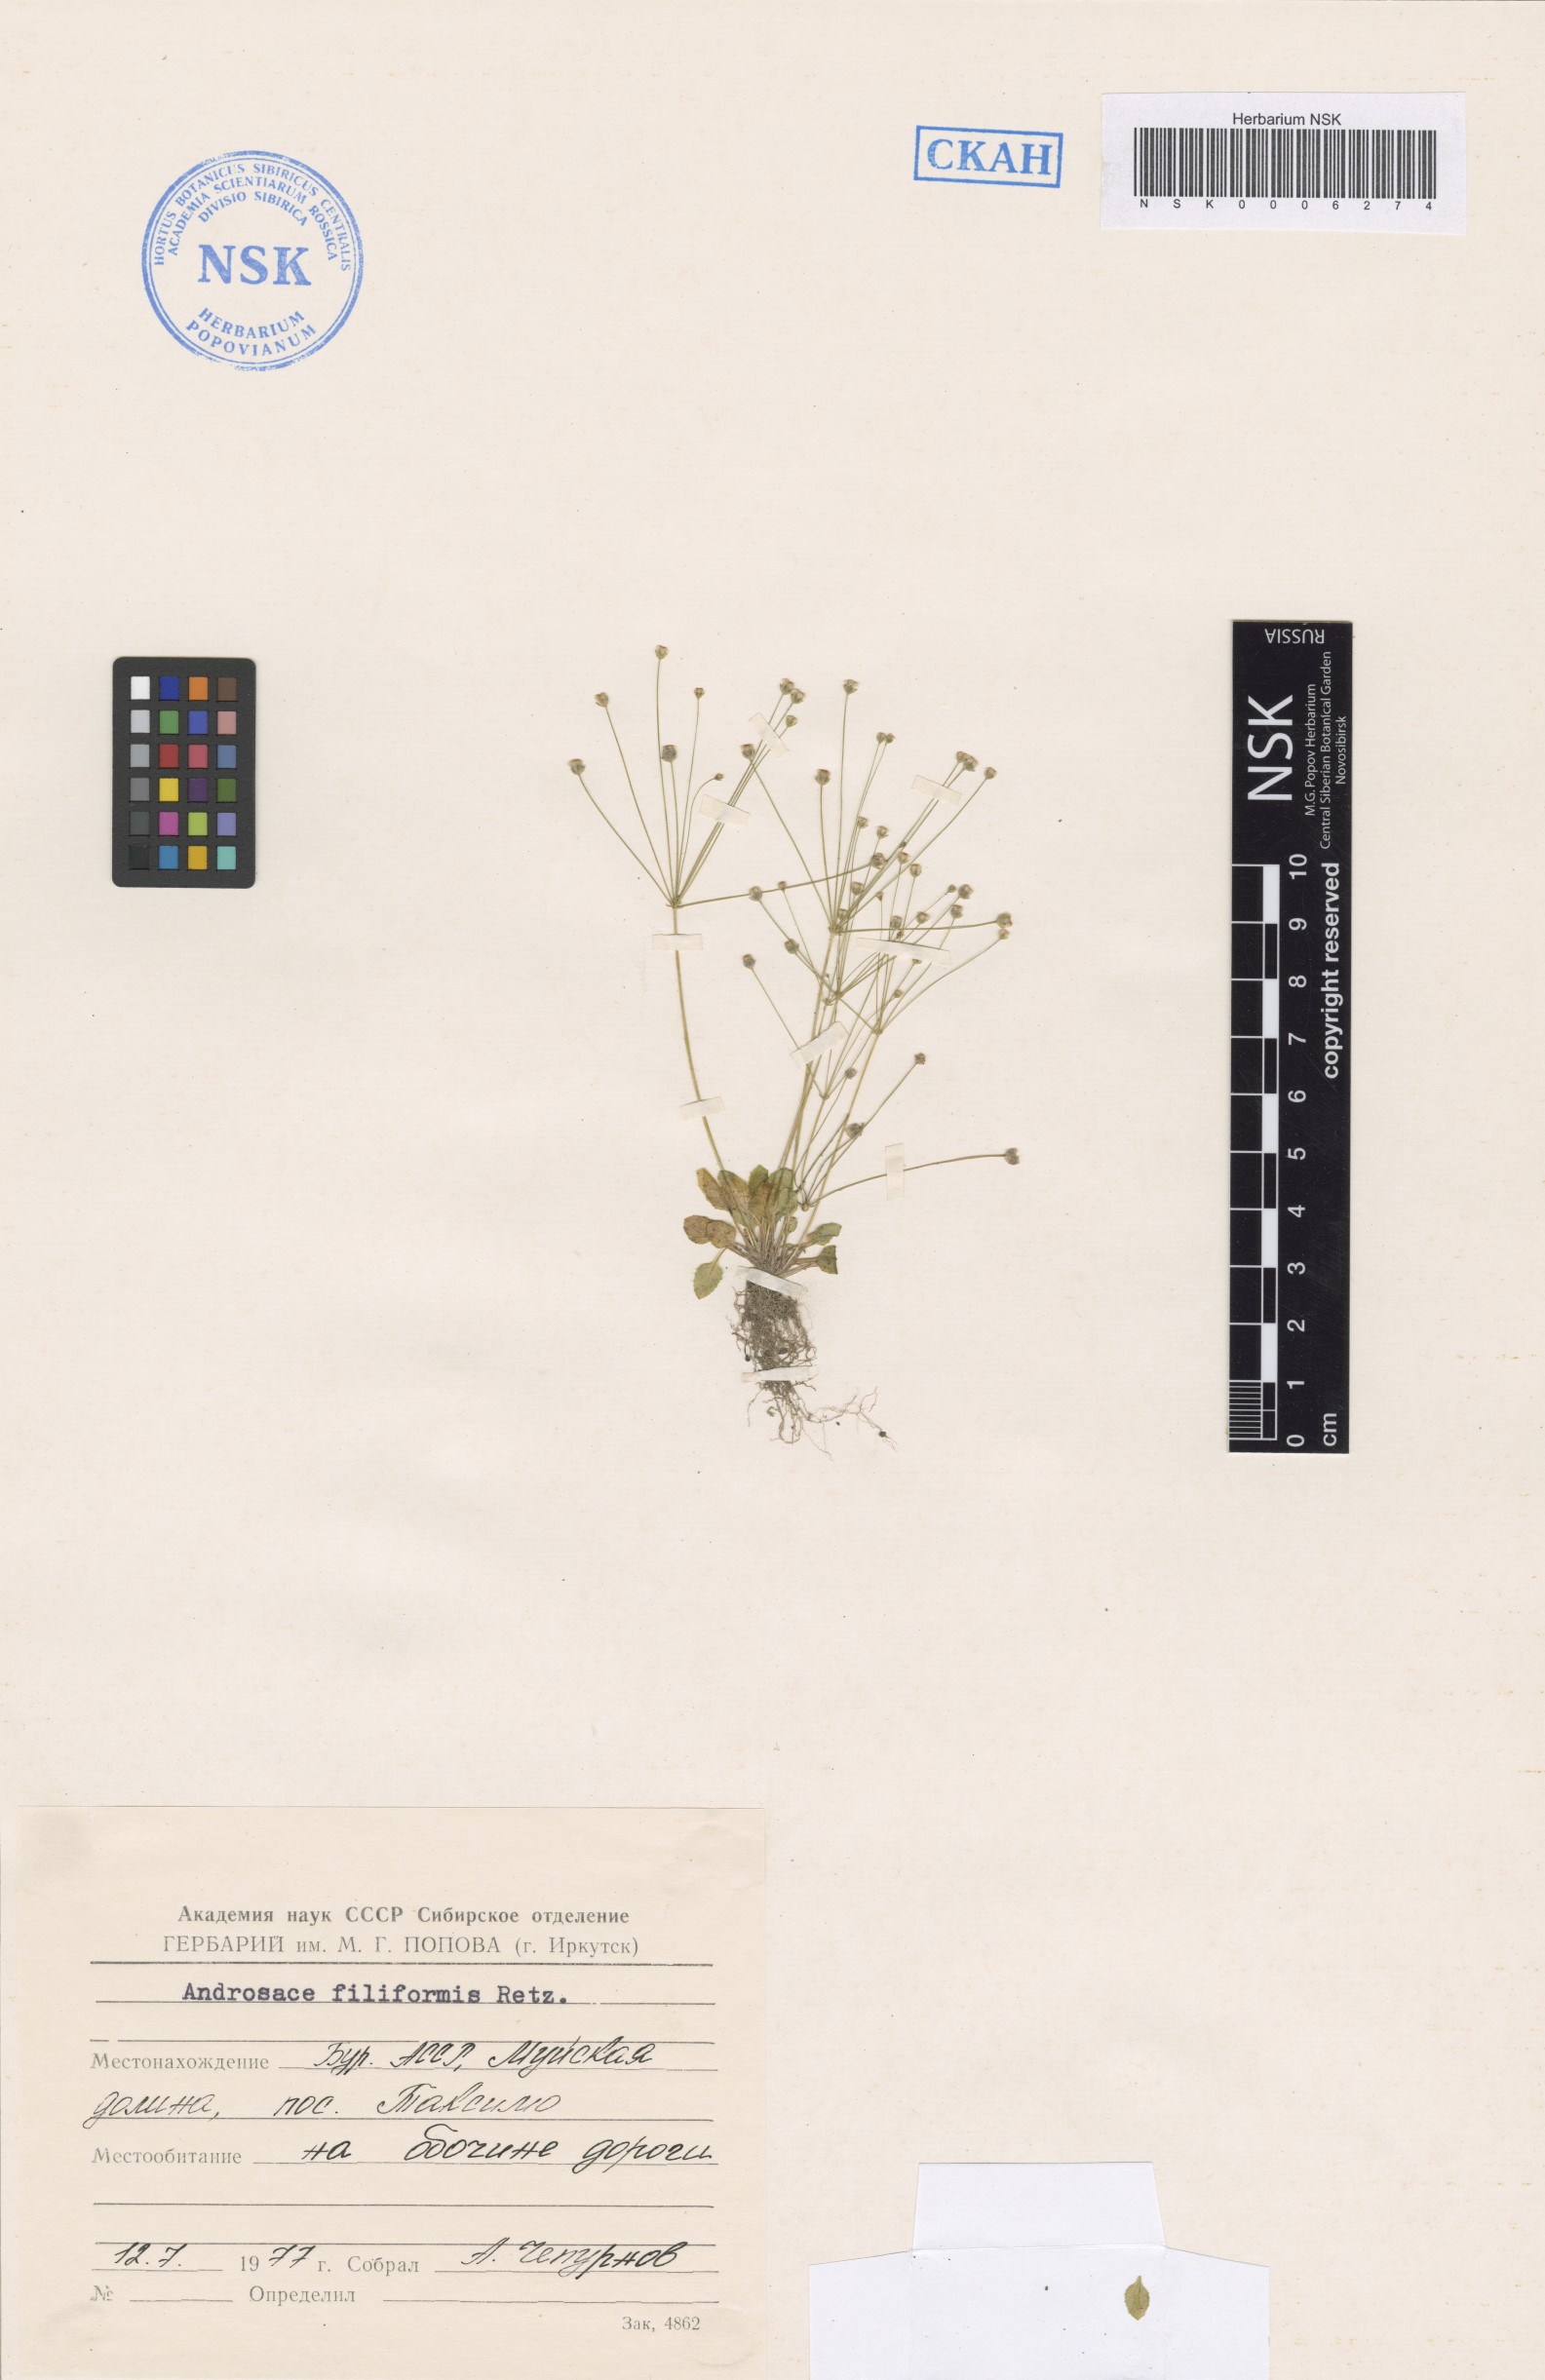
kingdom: Plantae
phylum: Tracheophyta
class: Magnoliopsida
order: Ericales
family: Primulaceae
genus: Androsace
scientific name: Androsace filiformis
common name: Filiform rock jasmine
